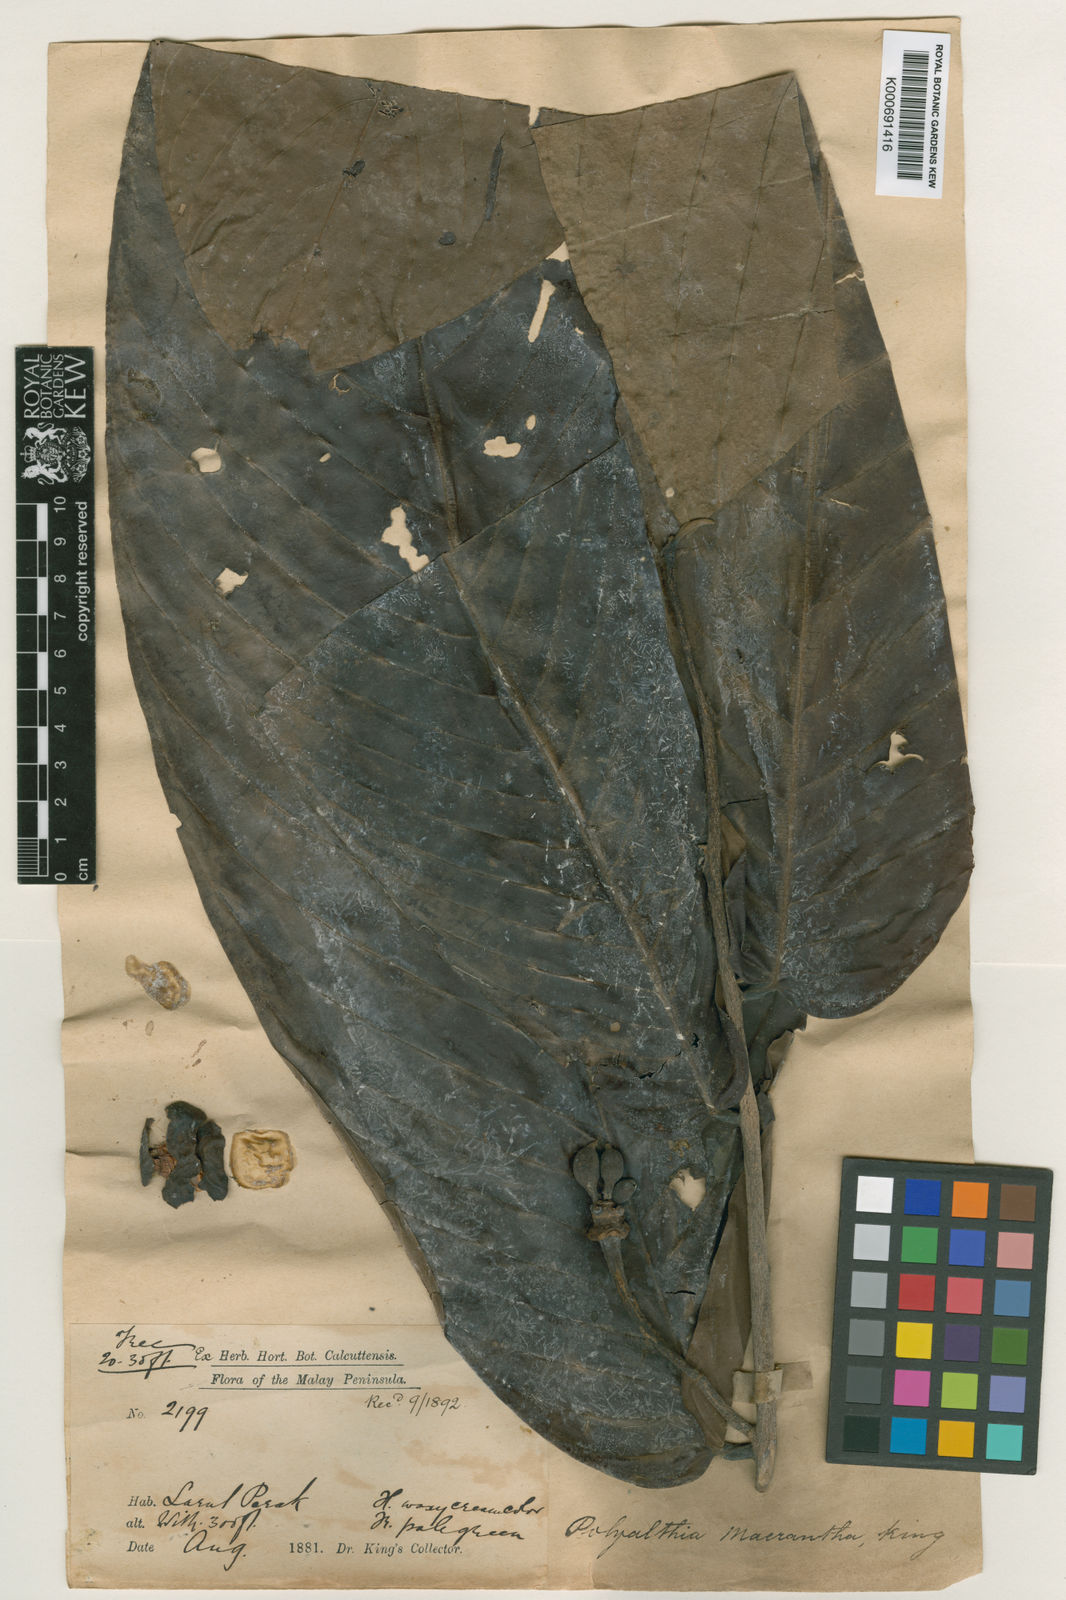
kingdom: Plantae
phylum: Tracheophyta
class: Magnoliopsida
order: Magnoliales
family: Annonaceae
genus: Enicosanthum
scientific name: Enicosanthum membranifolium
